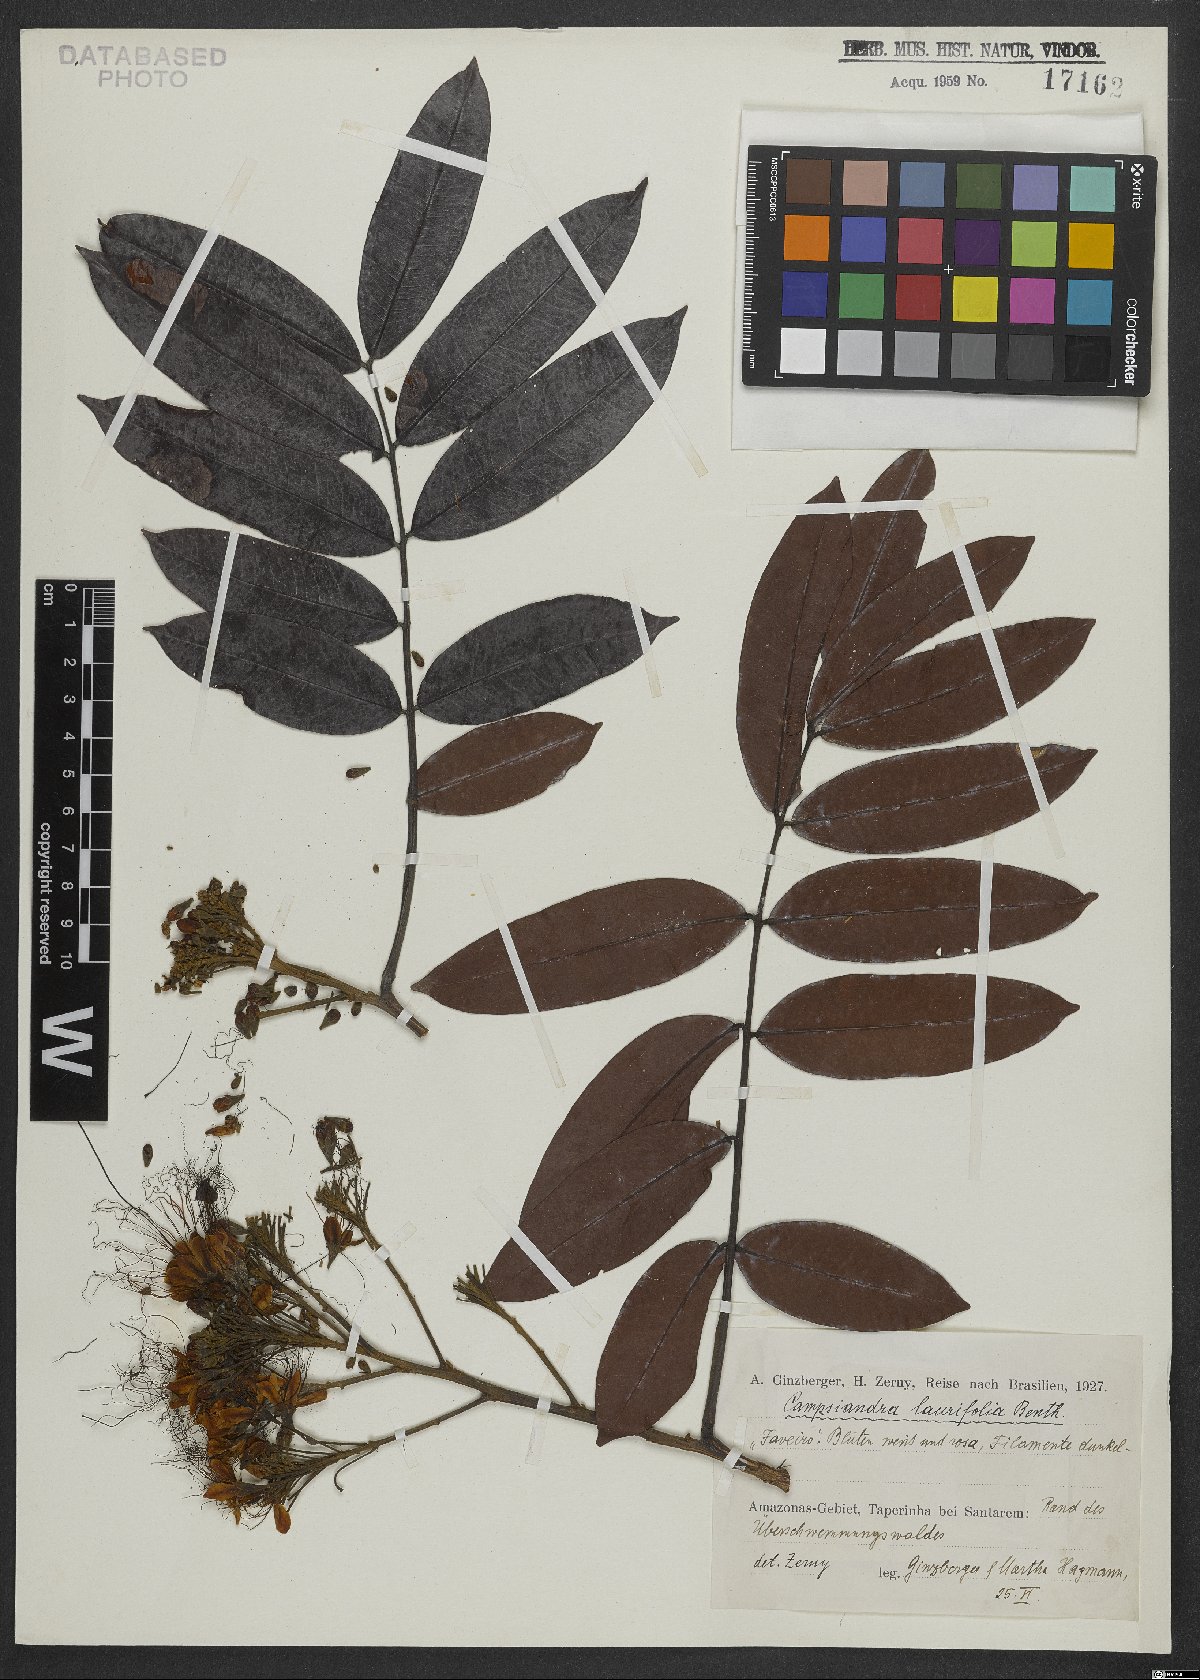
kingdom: Plantae
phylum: Tracheophyta
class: Magnoliopsida
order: Fabales
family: Fabaceae
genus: Campsiandra
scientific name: Campsiandra laurifolia
